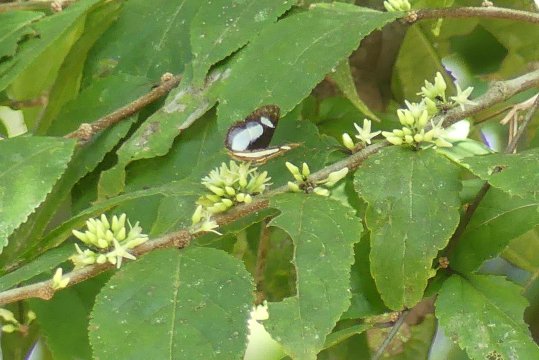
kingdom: Animalia
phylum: Arthropoda
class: Insecta
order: Lepidoptera
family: Riodinidae
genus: Thisbe
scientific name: Thisbe irenea
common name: Irenia Metalmark
